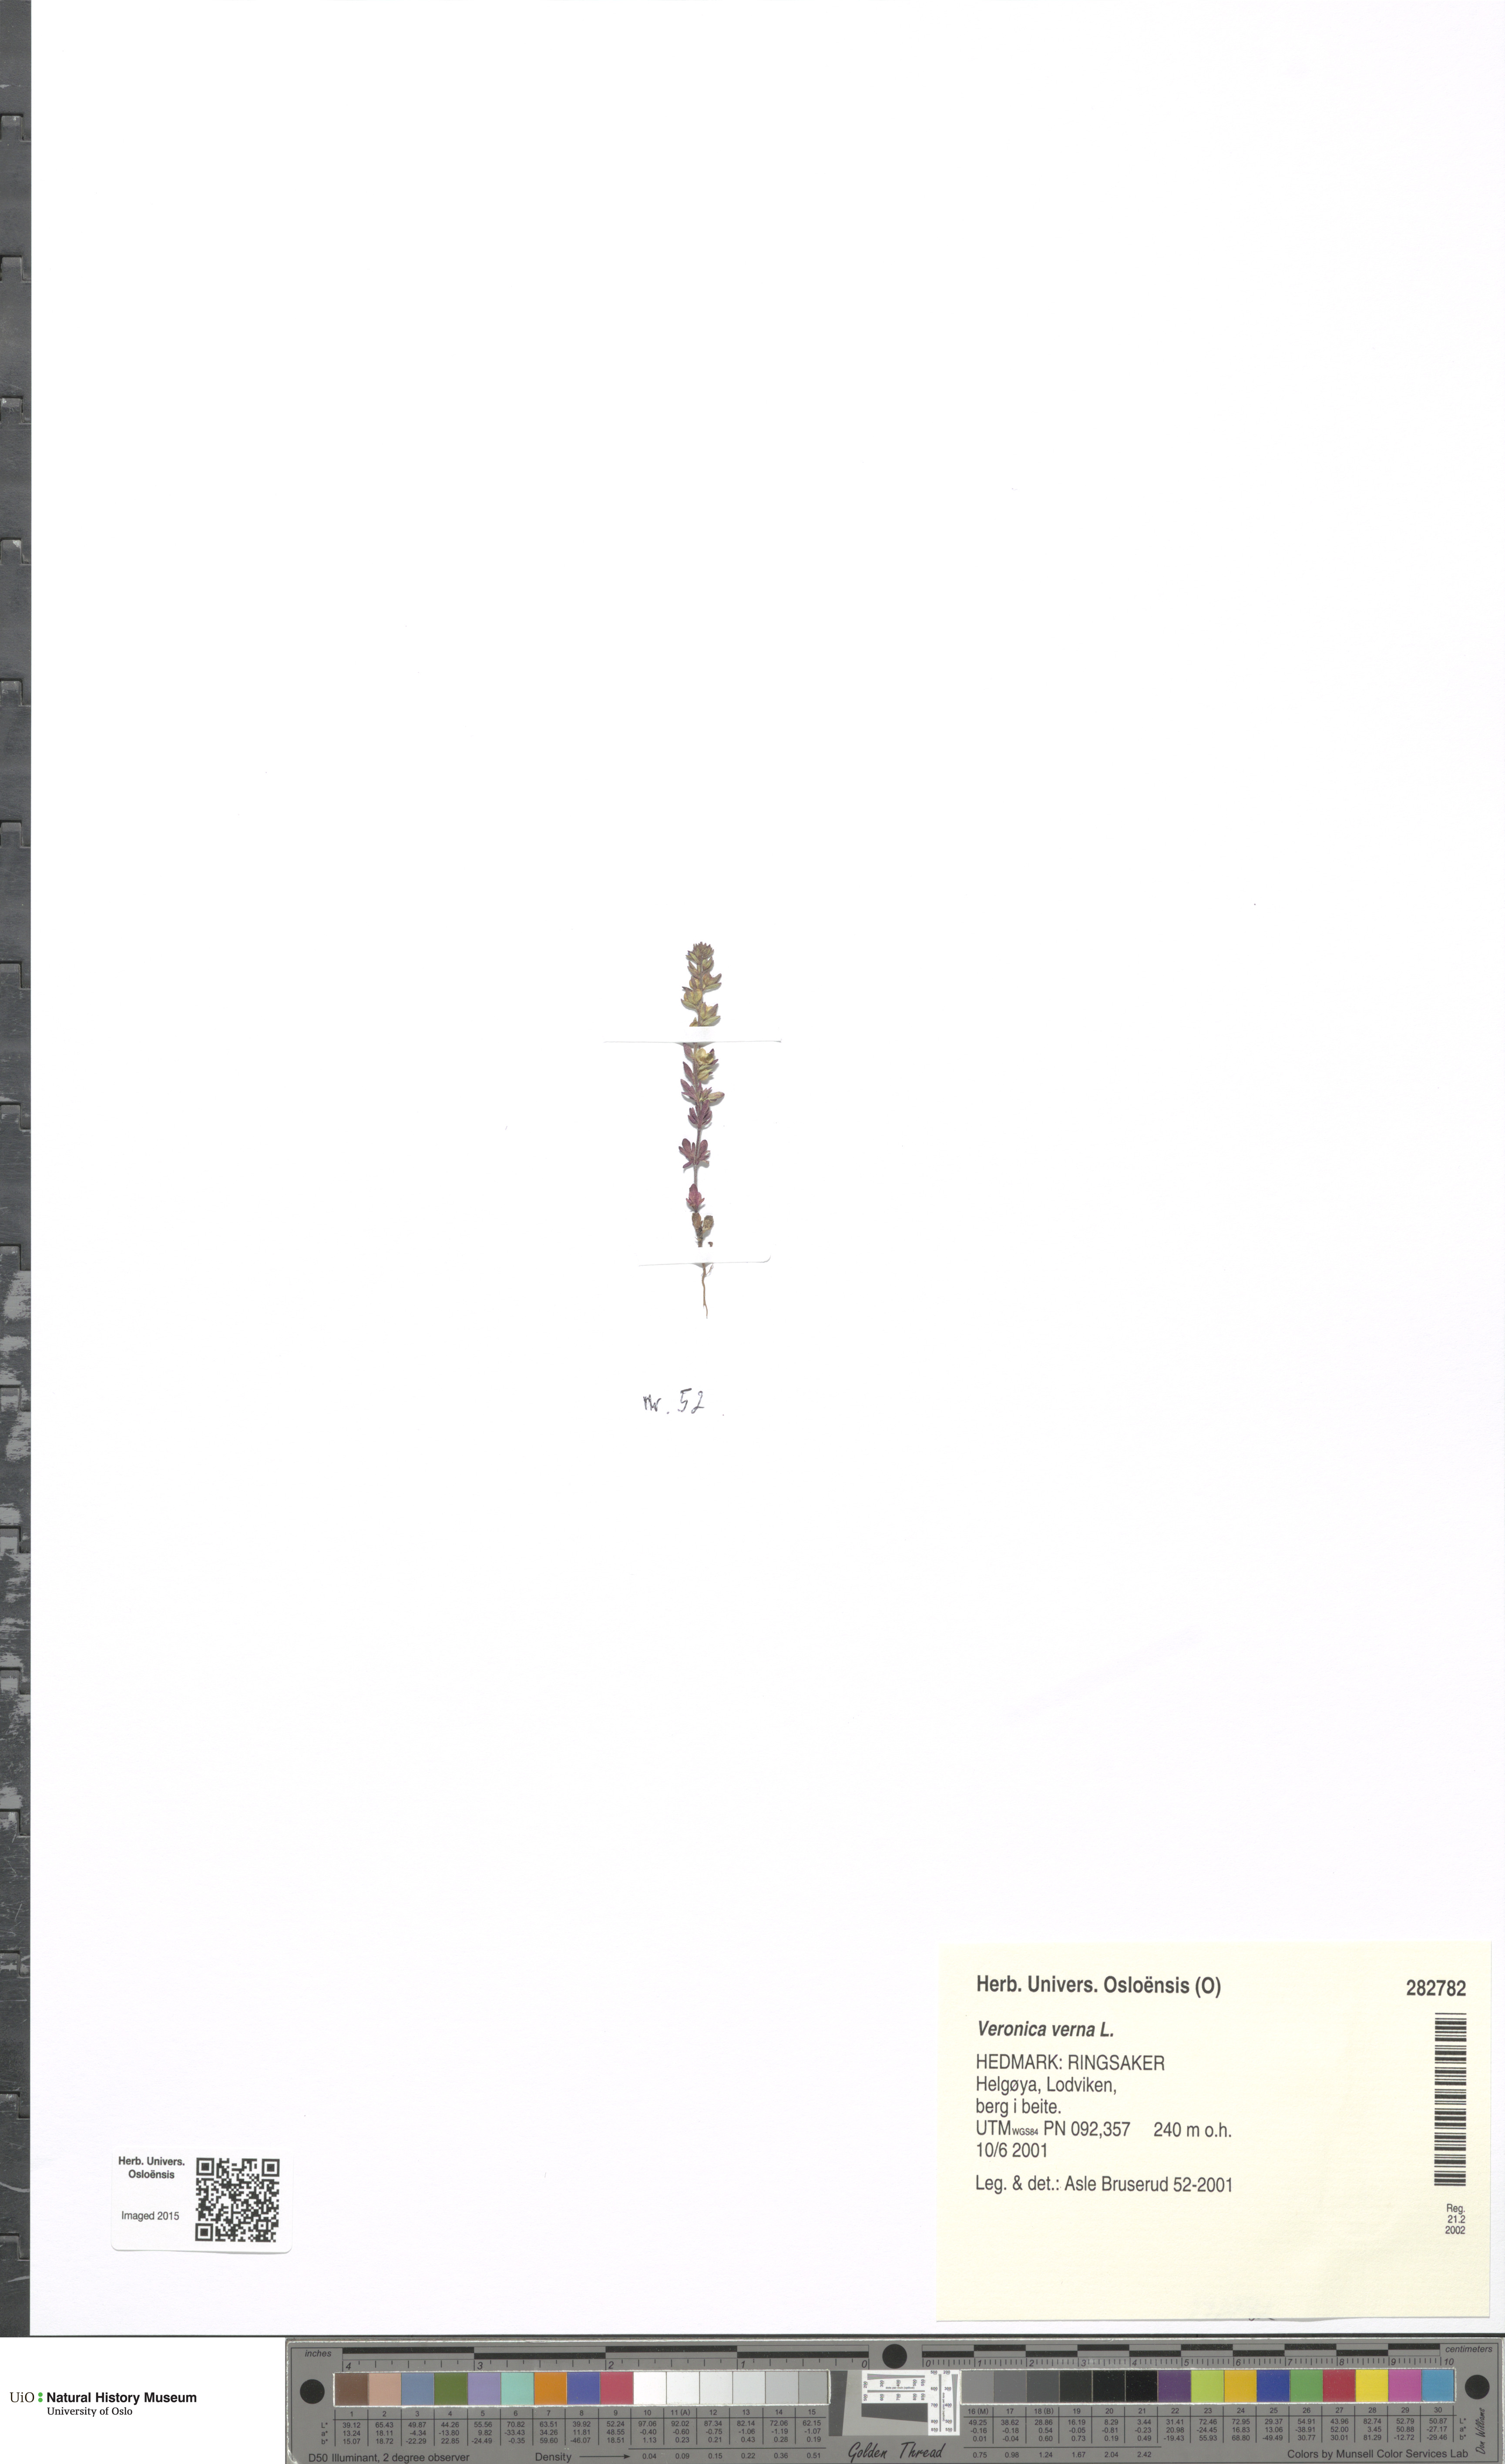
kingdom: Plantae
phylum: Tracheophyta
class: Magnoliopsida
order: Lamiales
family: Plantaginaceae
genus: Veronica
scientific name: Veronica verna
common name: Spring speedwell
